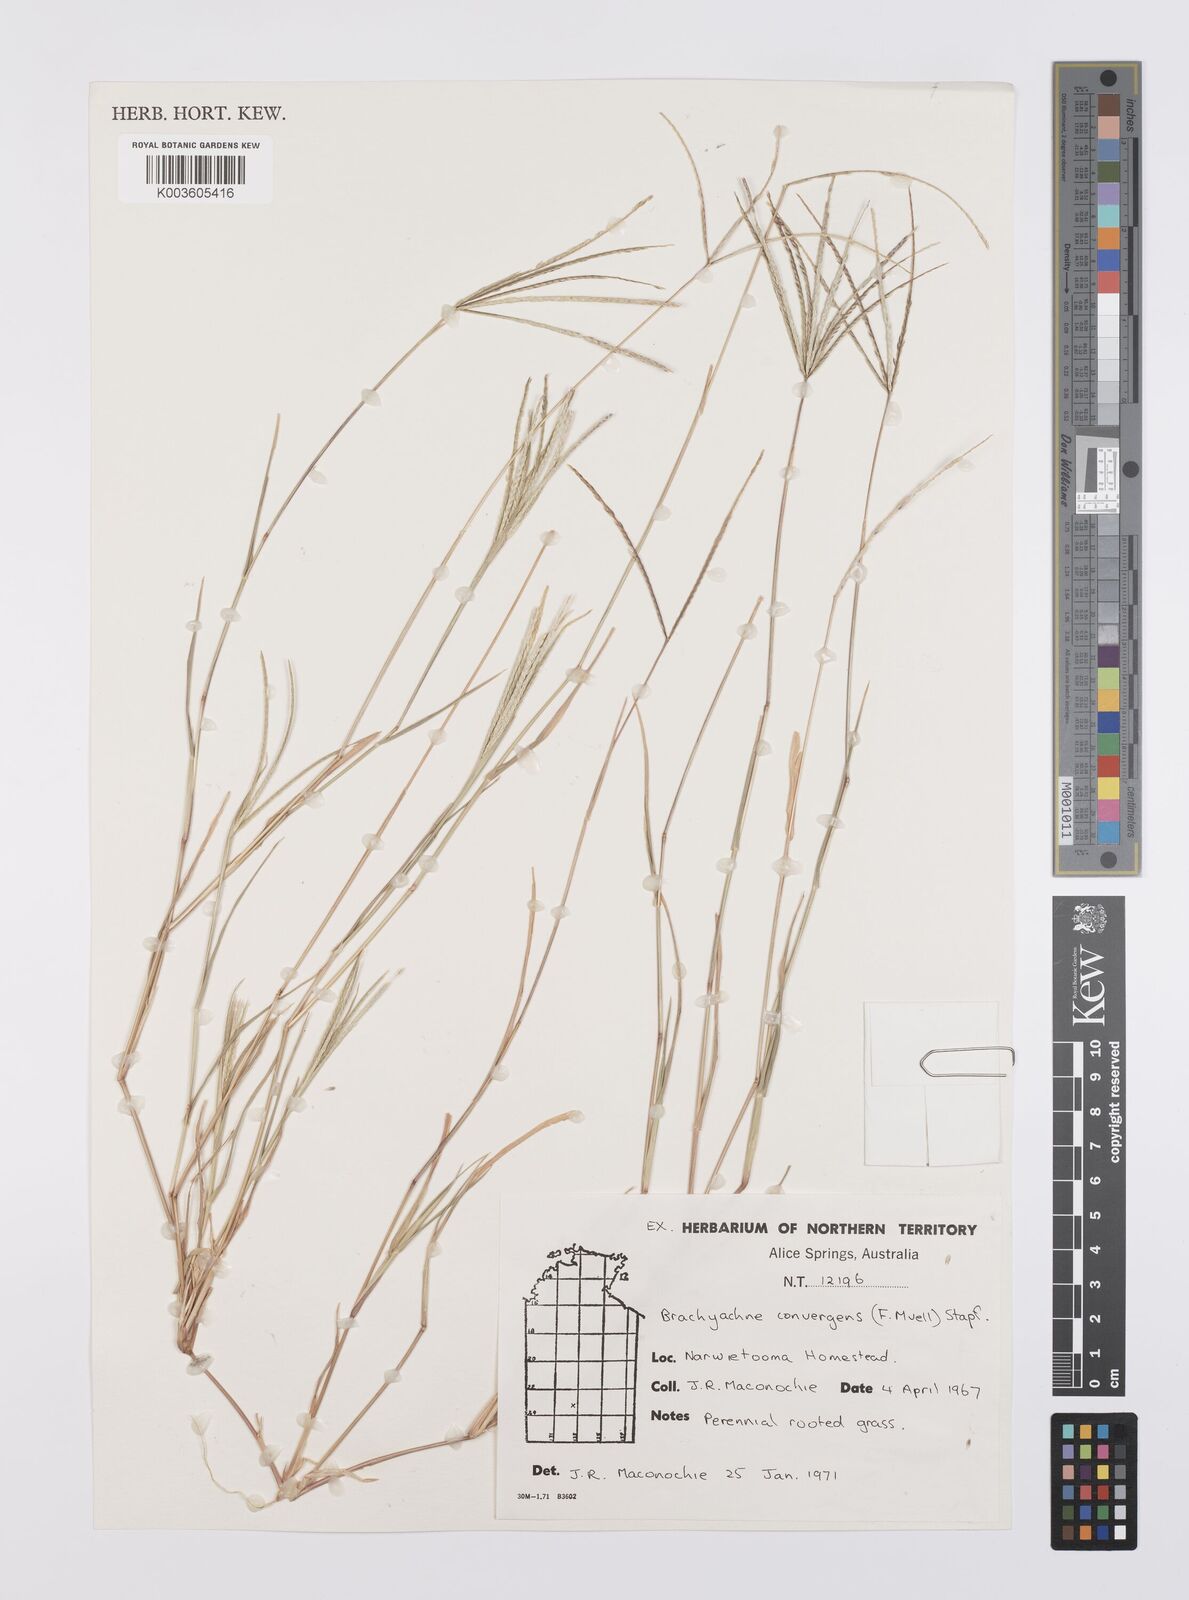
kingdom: Plantae
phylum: Tracheophyta
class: Liliopsida
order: Poales
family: Poaceae
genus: Cynodon
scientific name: Cynodon convergens
